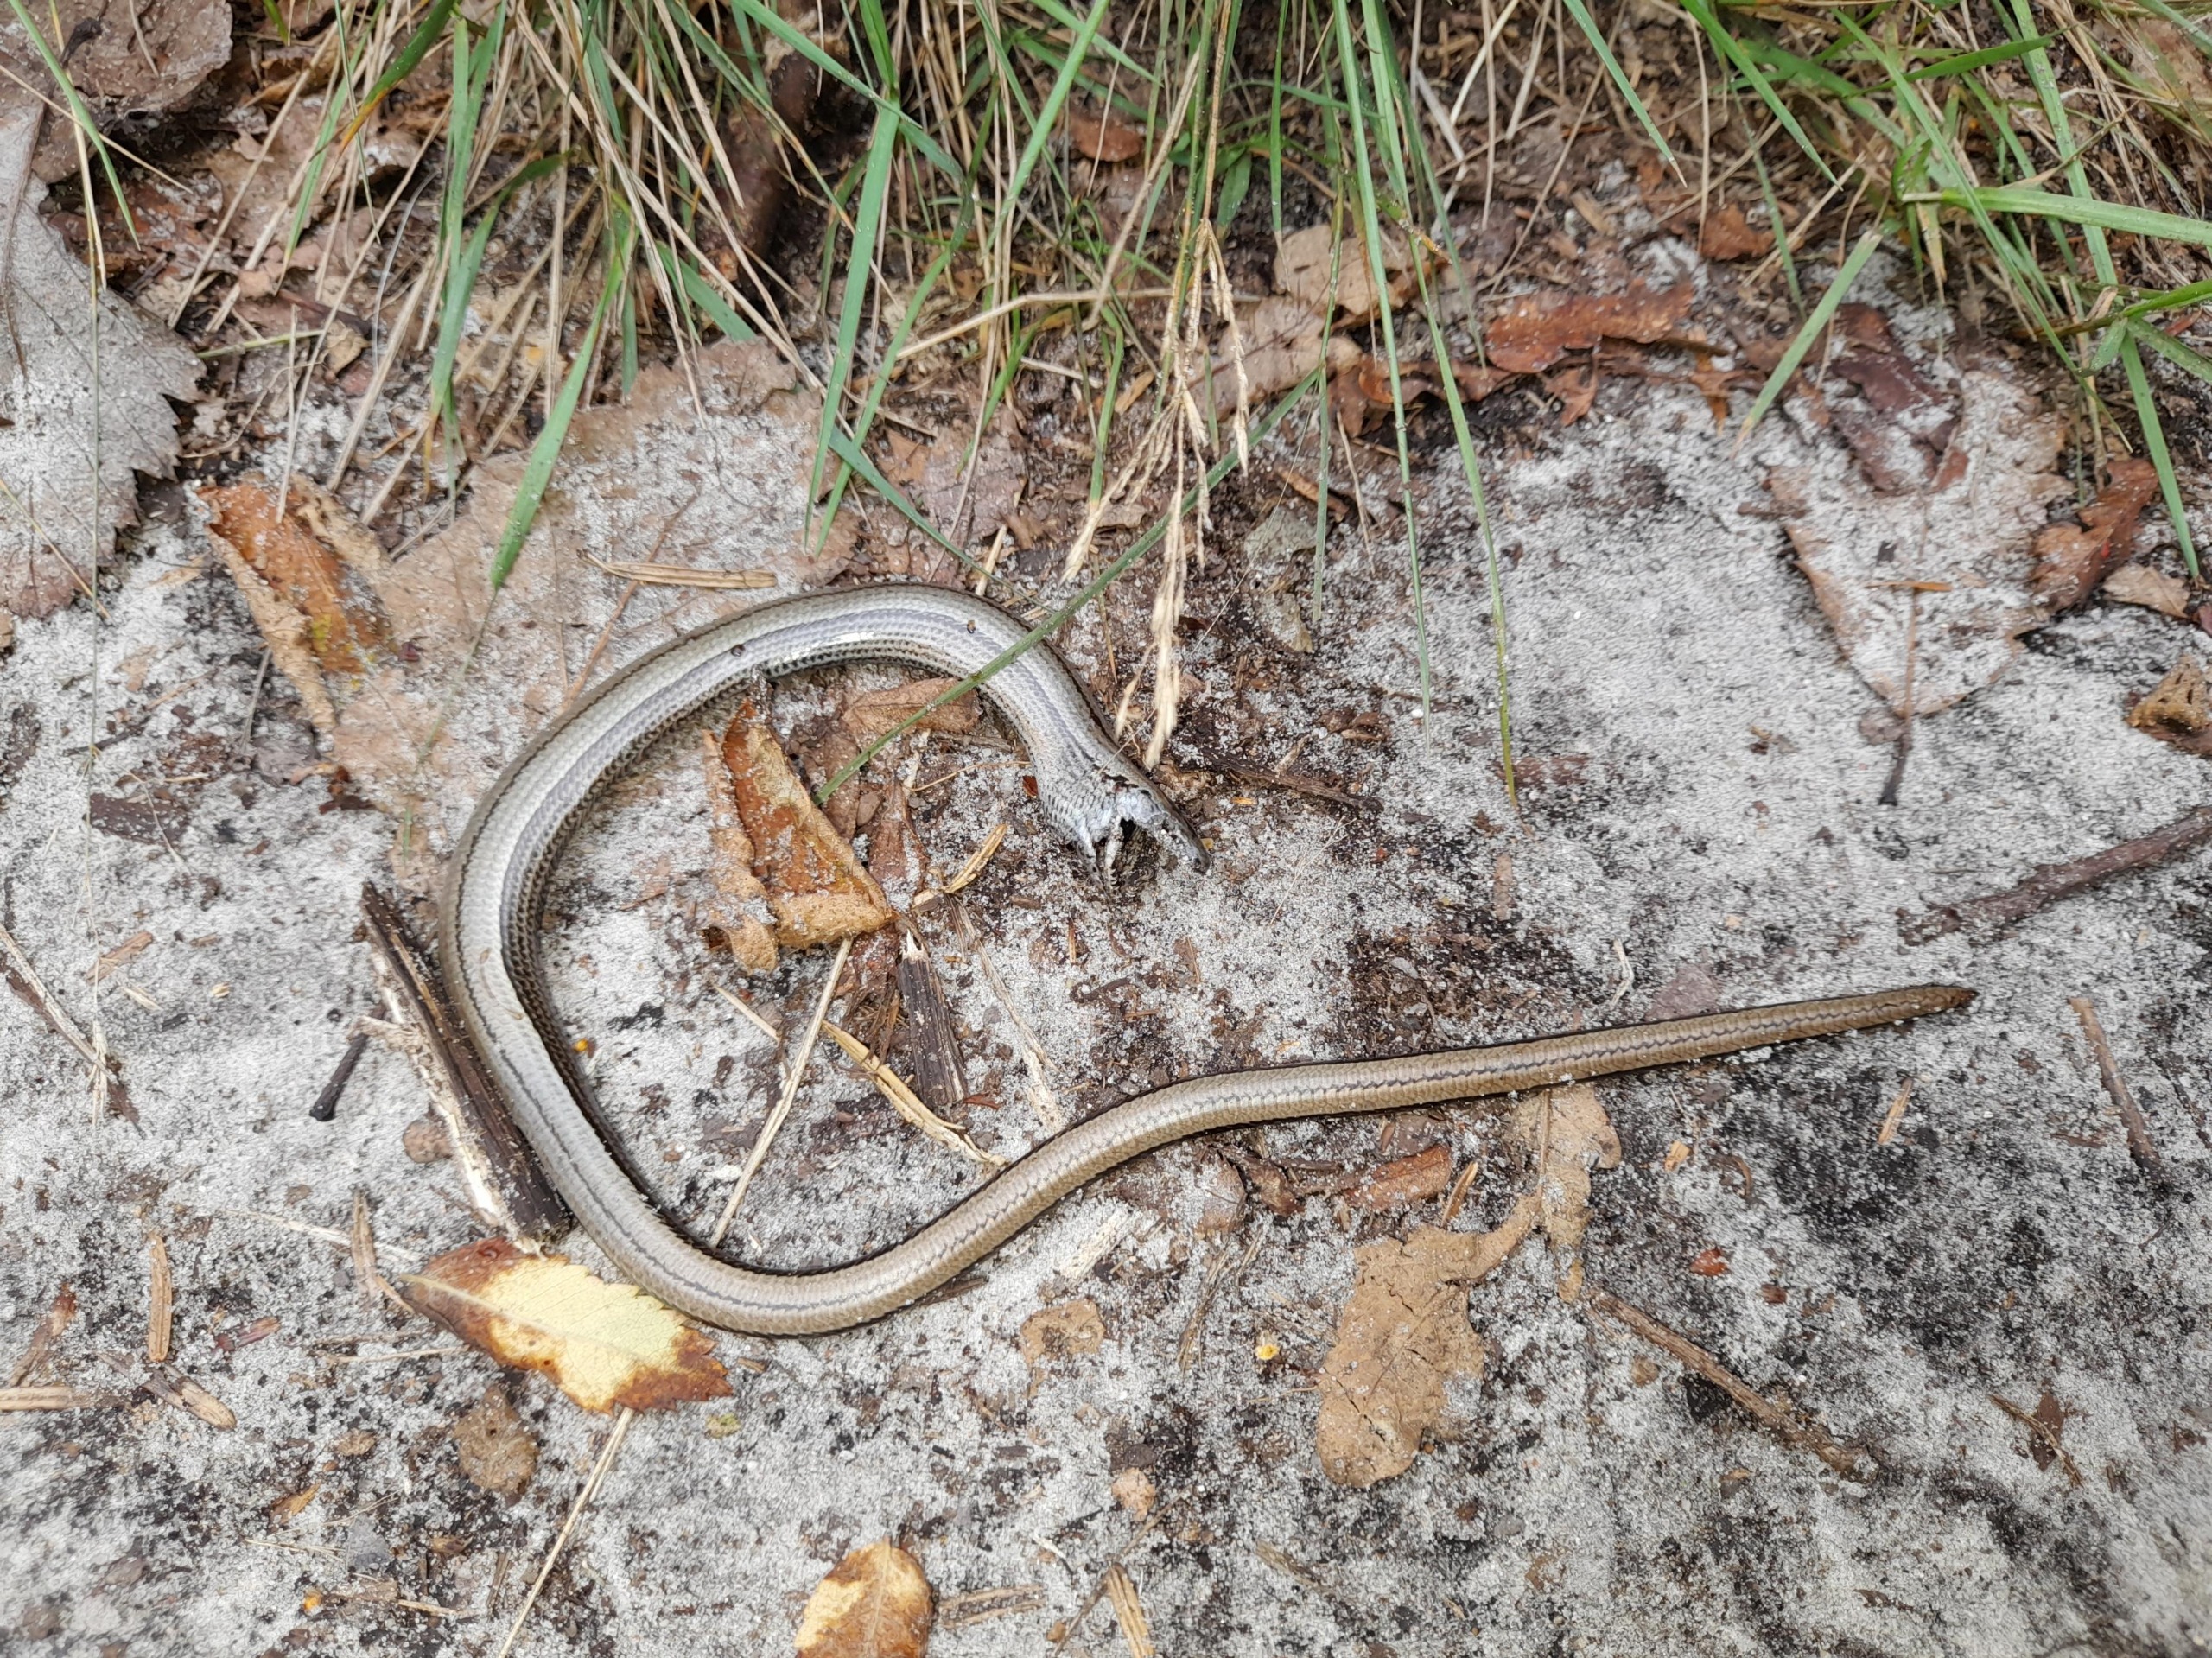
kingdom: Animalia
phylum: Chordata
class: Squamata
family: Anguidae
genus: Anguis
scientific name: Anguis fragilis
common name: Stålorm
